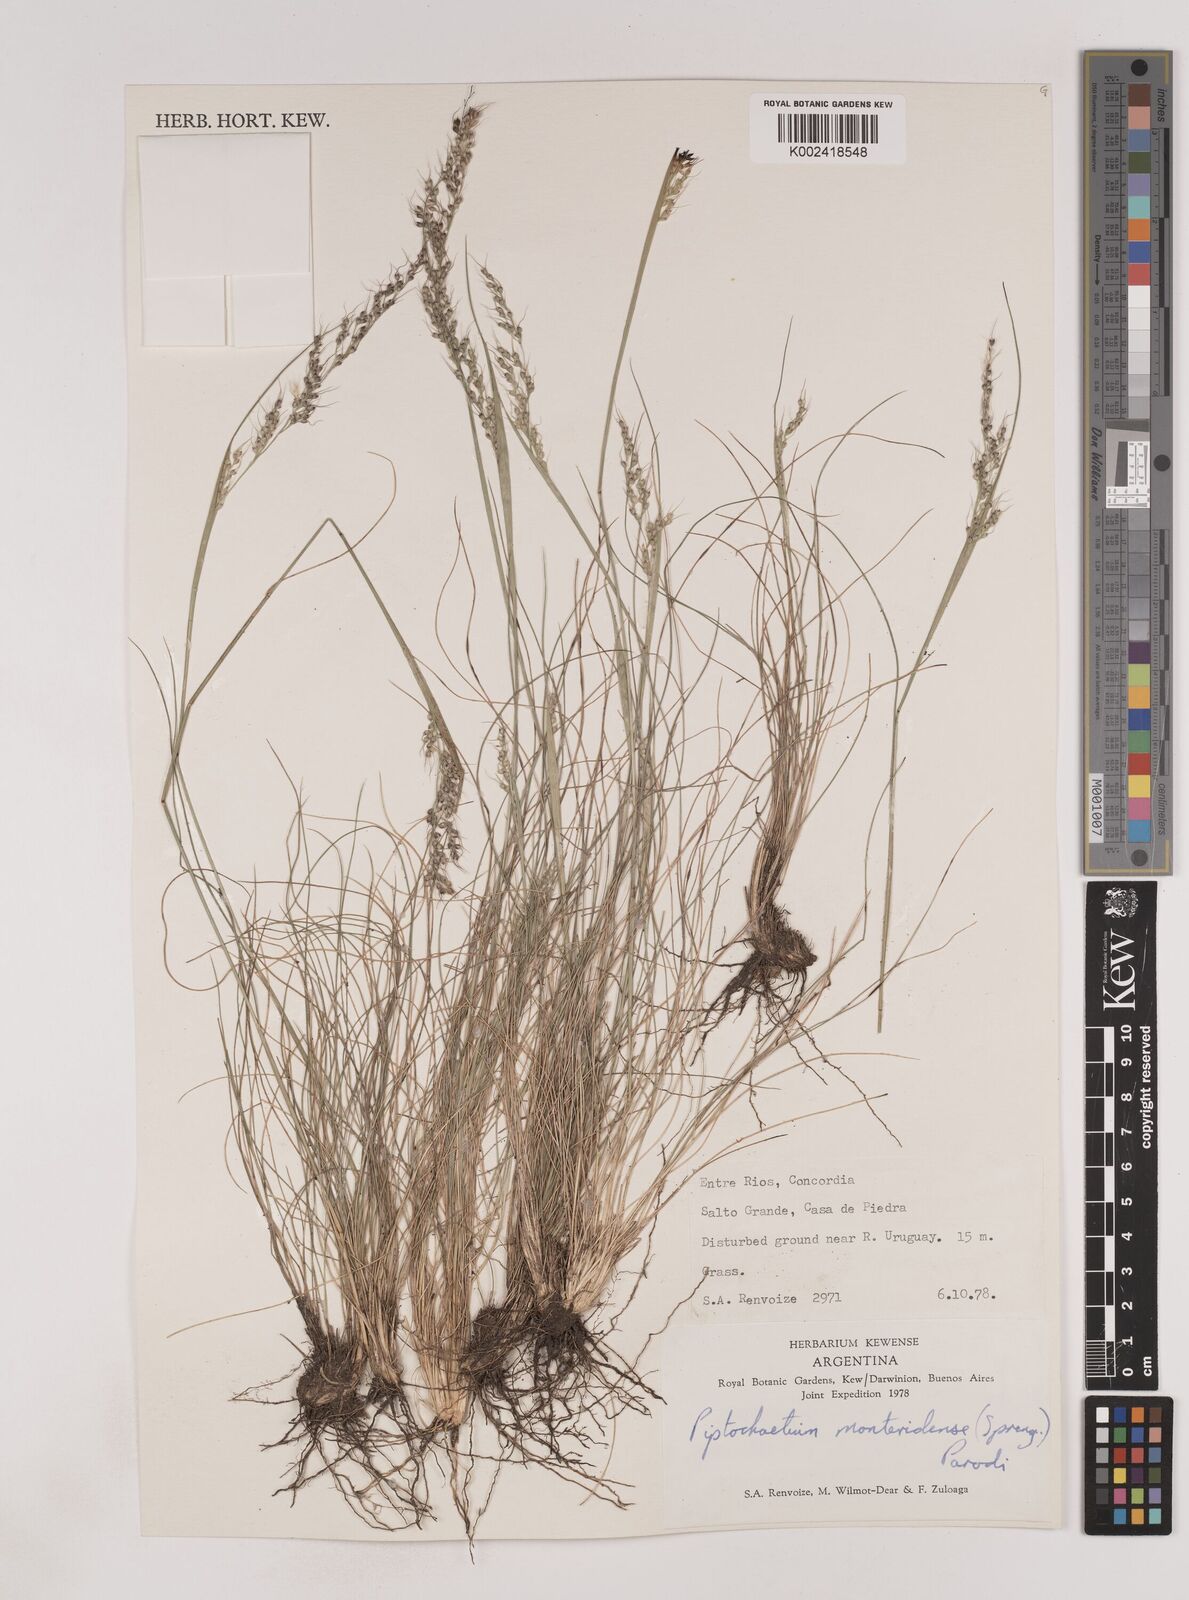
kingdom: Plantae
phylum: Tracheophyta
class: Liliopsida
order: Poales
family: Poaceae
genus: Piptochaetium
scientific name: Piptochaetium montevidense
